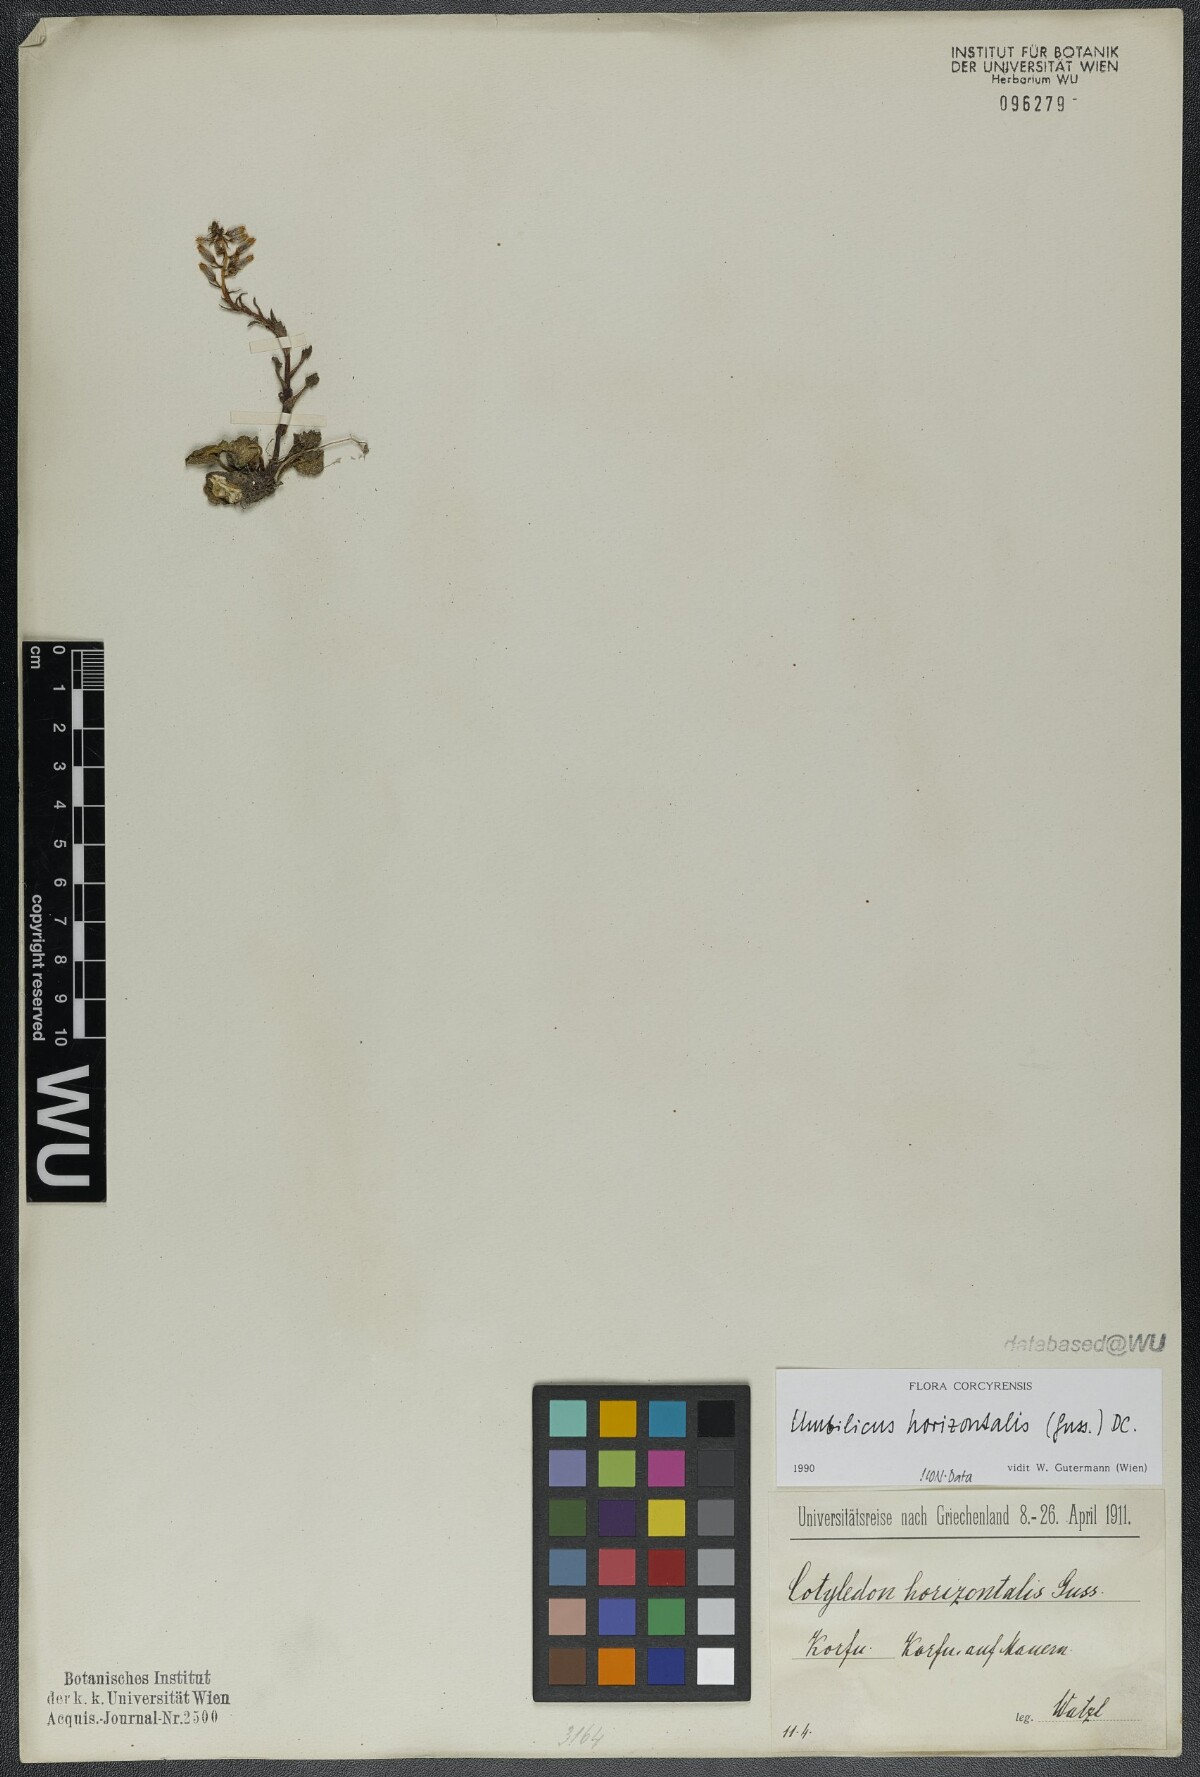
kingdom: Plantae
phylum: Tracheophyta
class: Magnoliopsida
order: Saxifragales
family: Crassulaceae
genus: Umbilicus
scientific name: Umbilicus horizontalis
